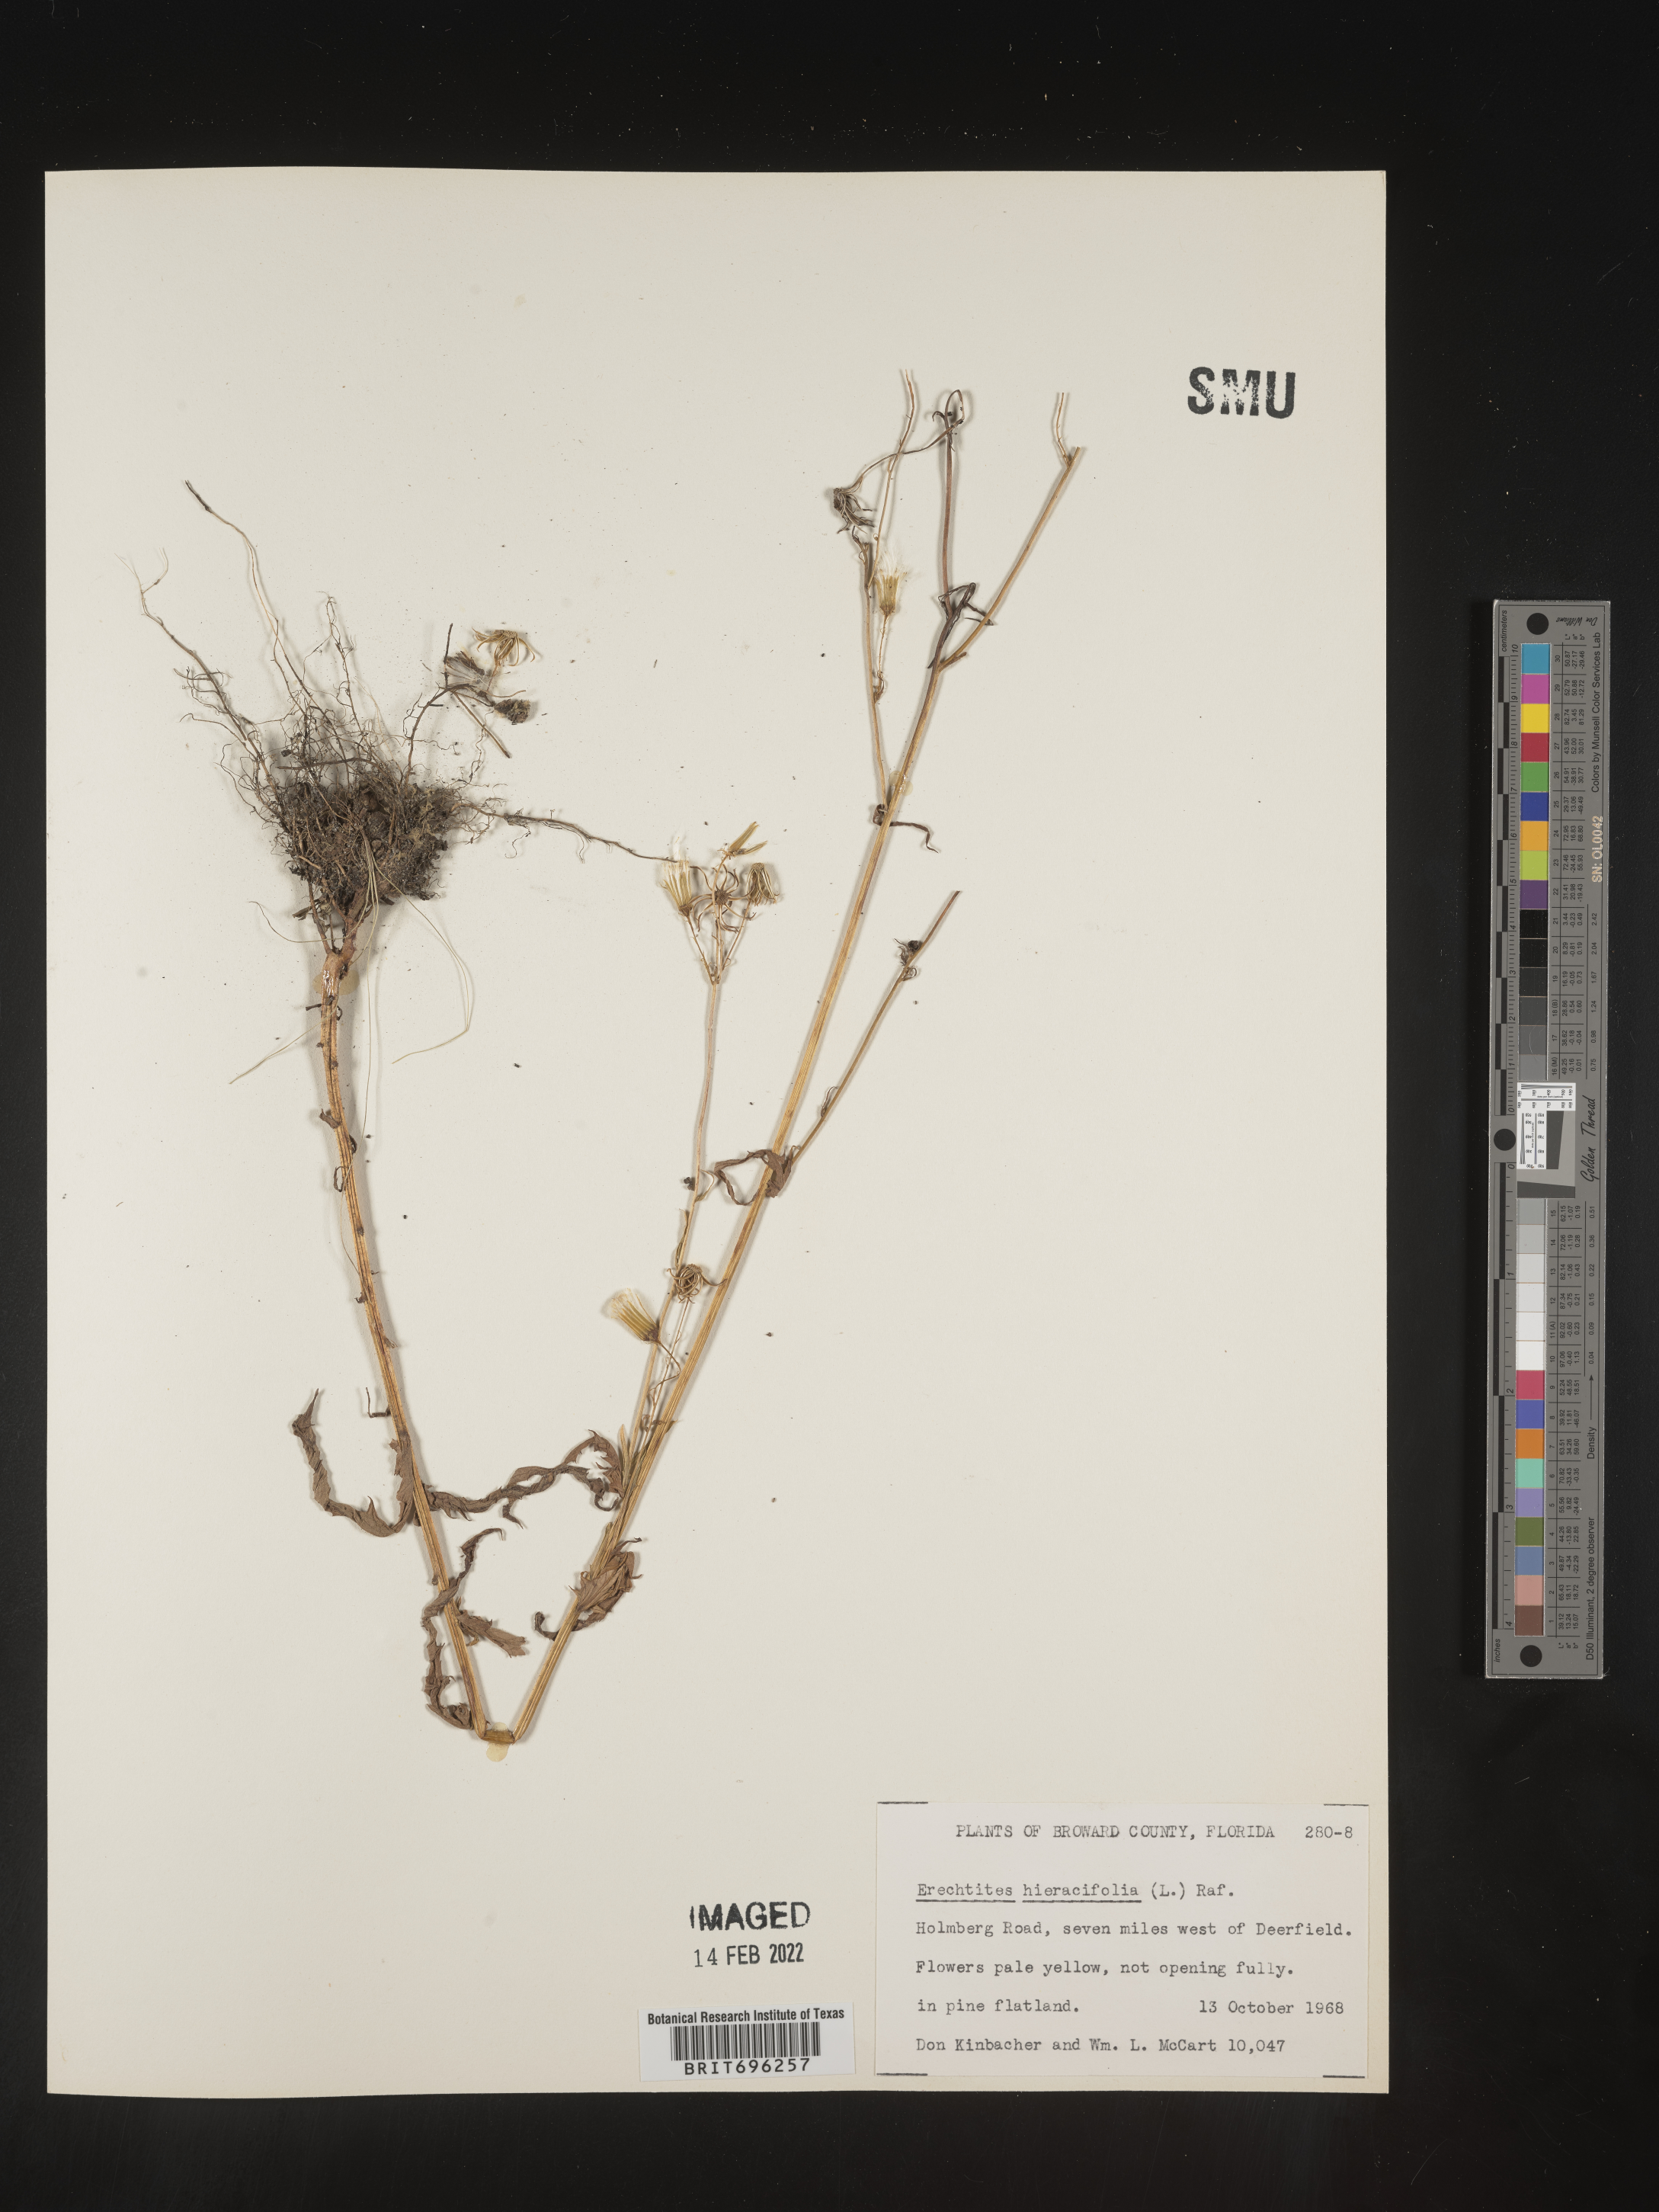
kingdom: Plantae
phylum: Tracheophyta
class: Magnoliopsida
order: Asterales
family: Asteraceae
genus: Erechtites
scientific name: Erechtites hieraciifolius
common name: American burnweed
